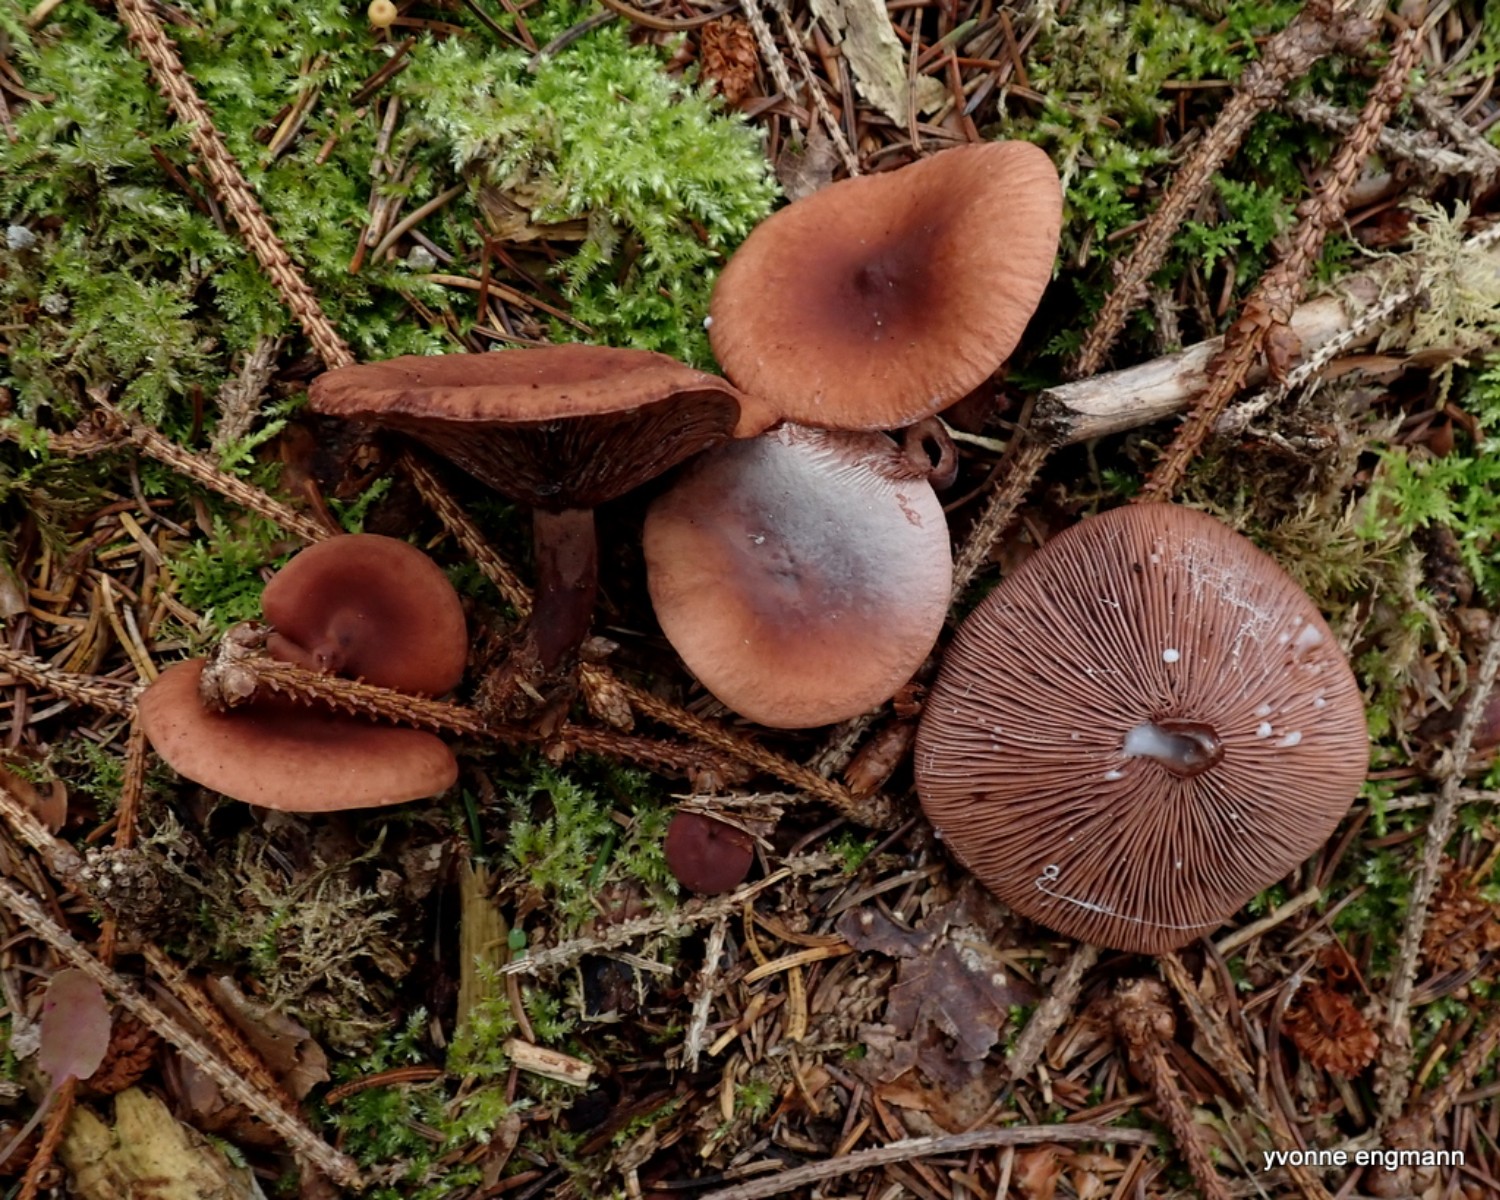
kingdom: Fungi
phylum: Basidiomycota
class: Agaricomycetes
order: Russulales
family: Russulaceae
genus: Lactarius
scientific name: Lactarius camphoratus
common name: kamfer-mælkehat
